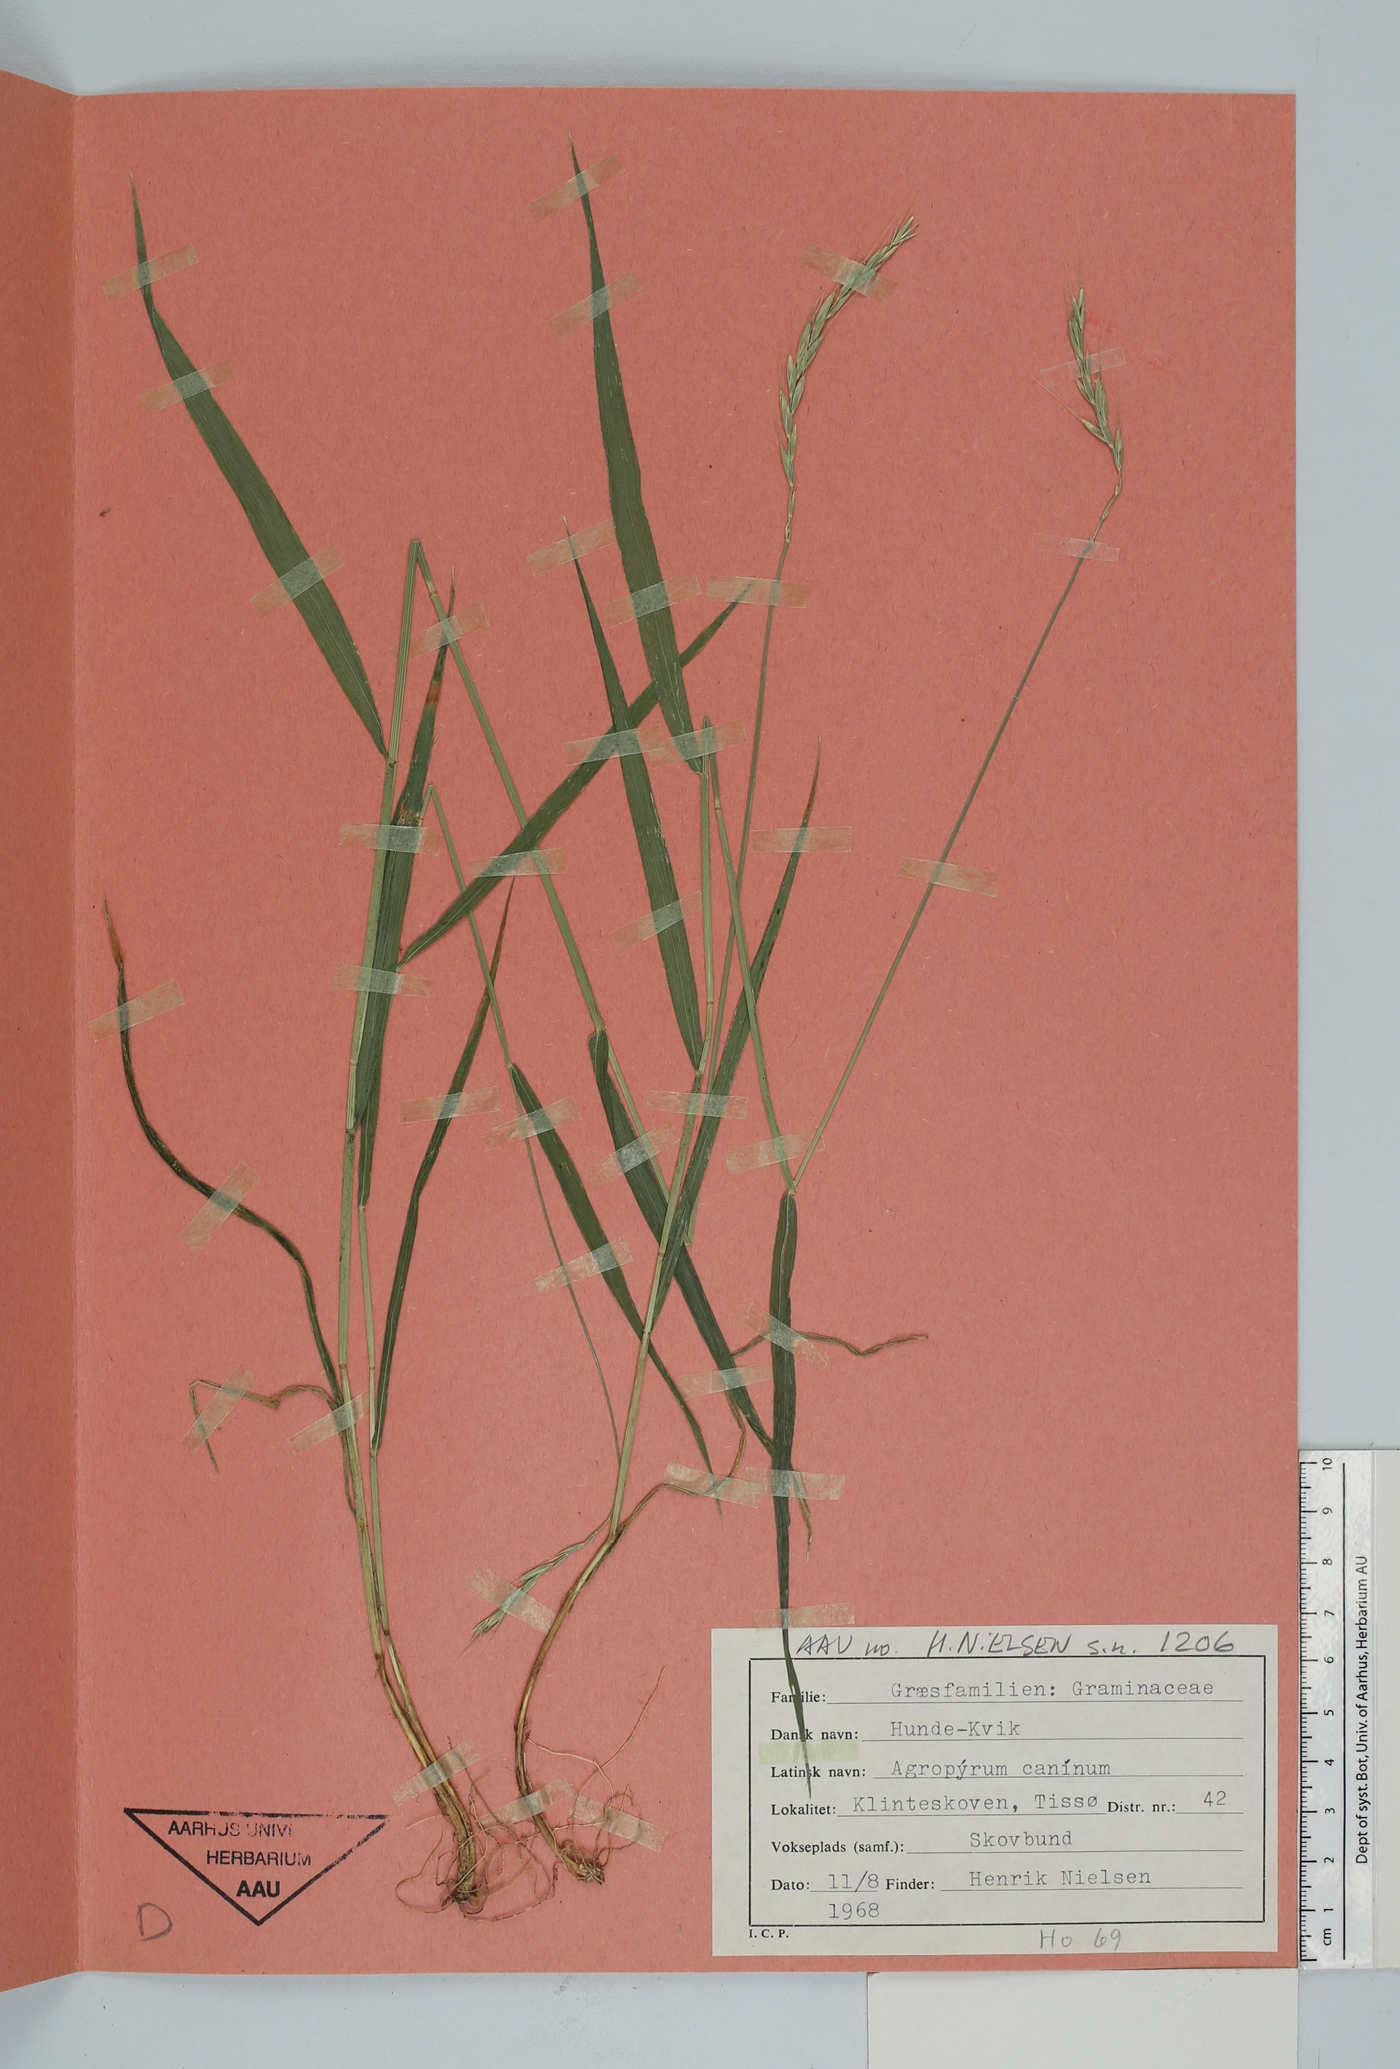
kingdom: Plantae
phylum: Tracheophyta
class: Liliopsida
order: Poales
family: Poaceae
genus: Elymus
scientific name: Elymus caninus
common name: Bearded couch
